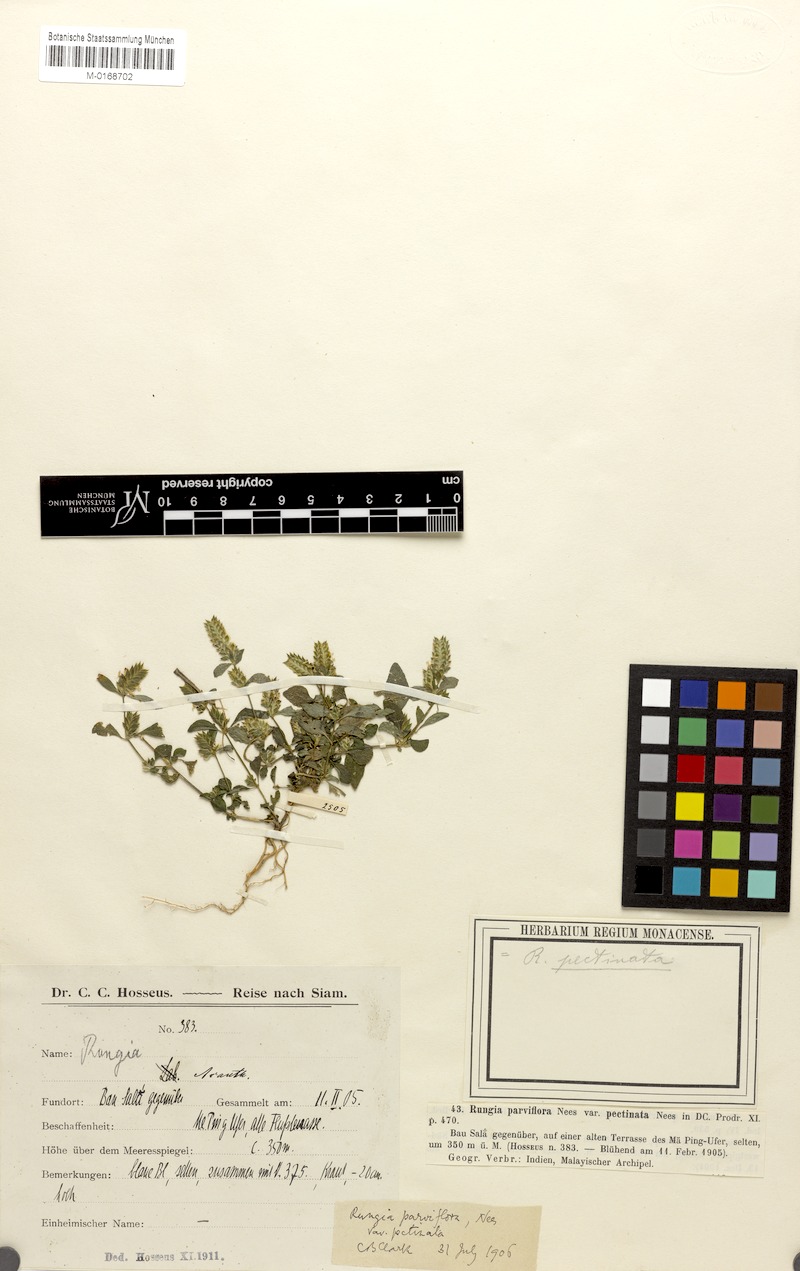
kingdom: Plantae
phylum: Tracheophyta
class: Magnoliopsida
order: Lamiales
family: Acanthaceae
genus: Rungia
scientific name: Rungia parviflora
